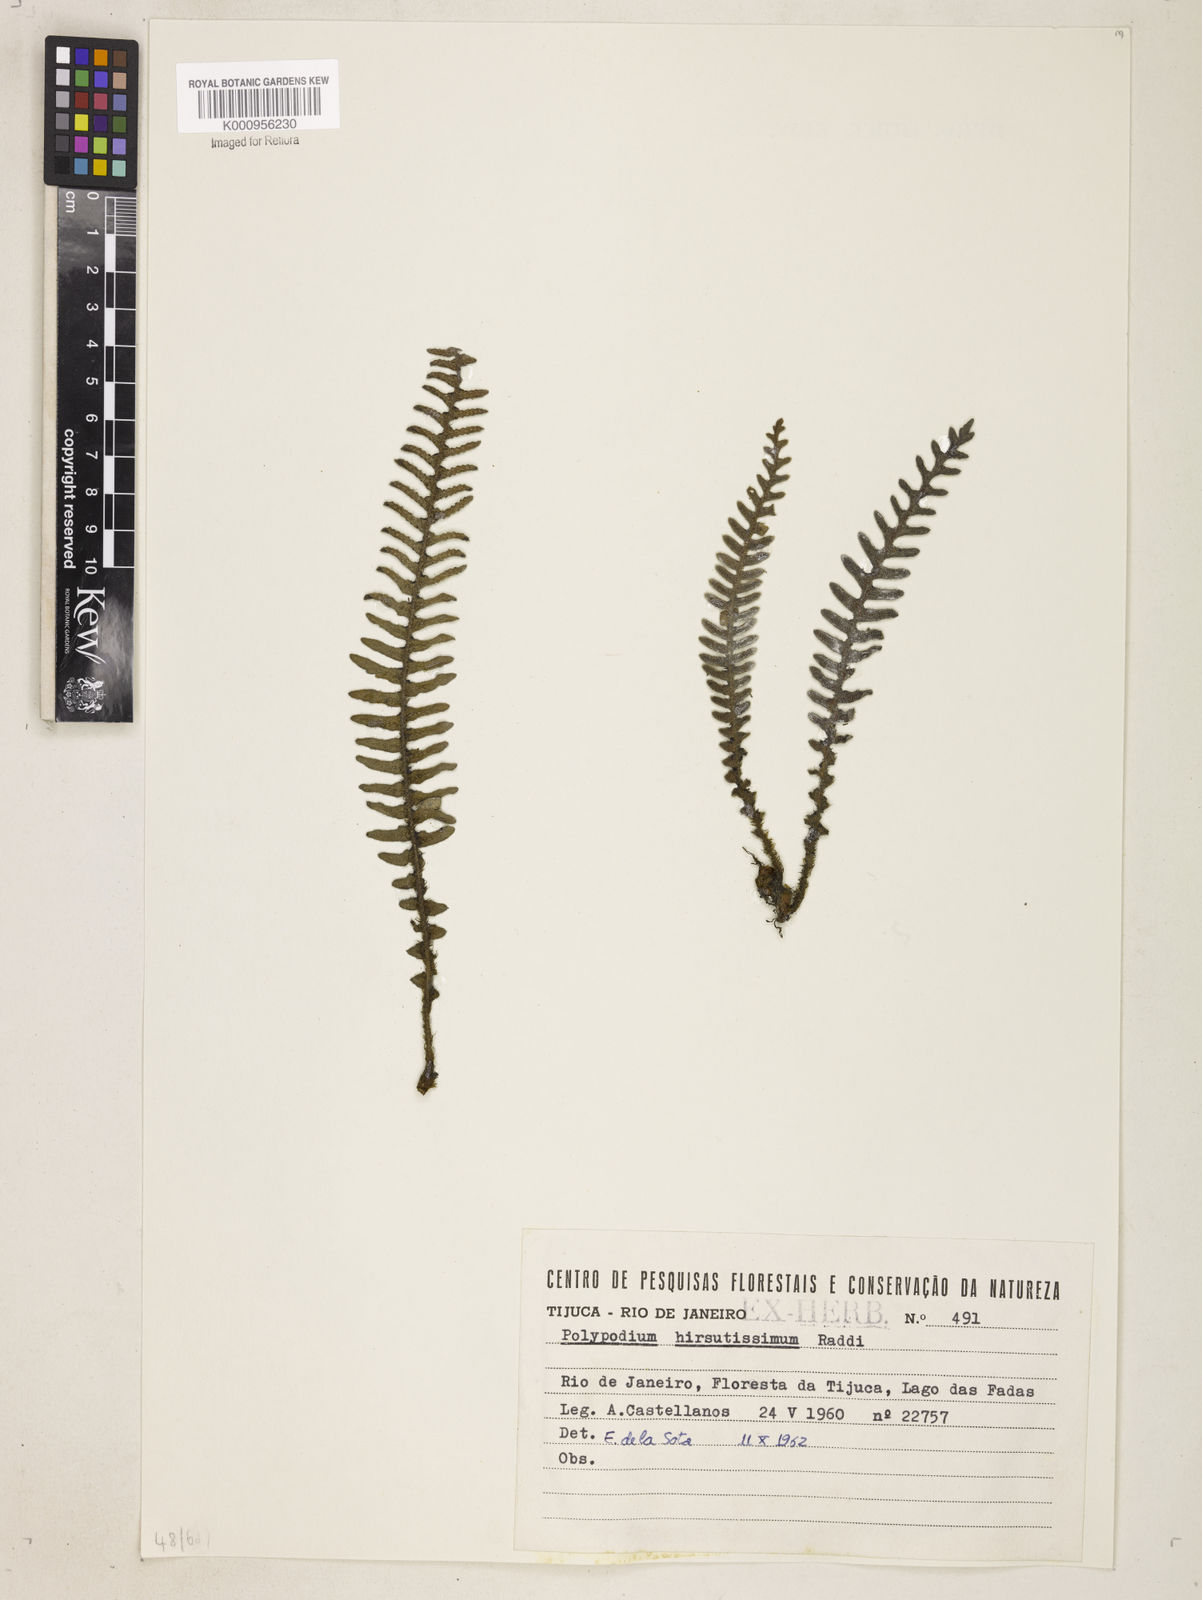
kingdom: Plantae
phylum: Tracheophyta
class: Polypodiopsida
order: Polypodiales
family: Polypodiaceae
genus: Pleopeltis
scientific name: Pleopeltis hirsutissima
